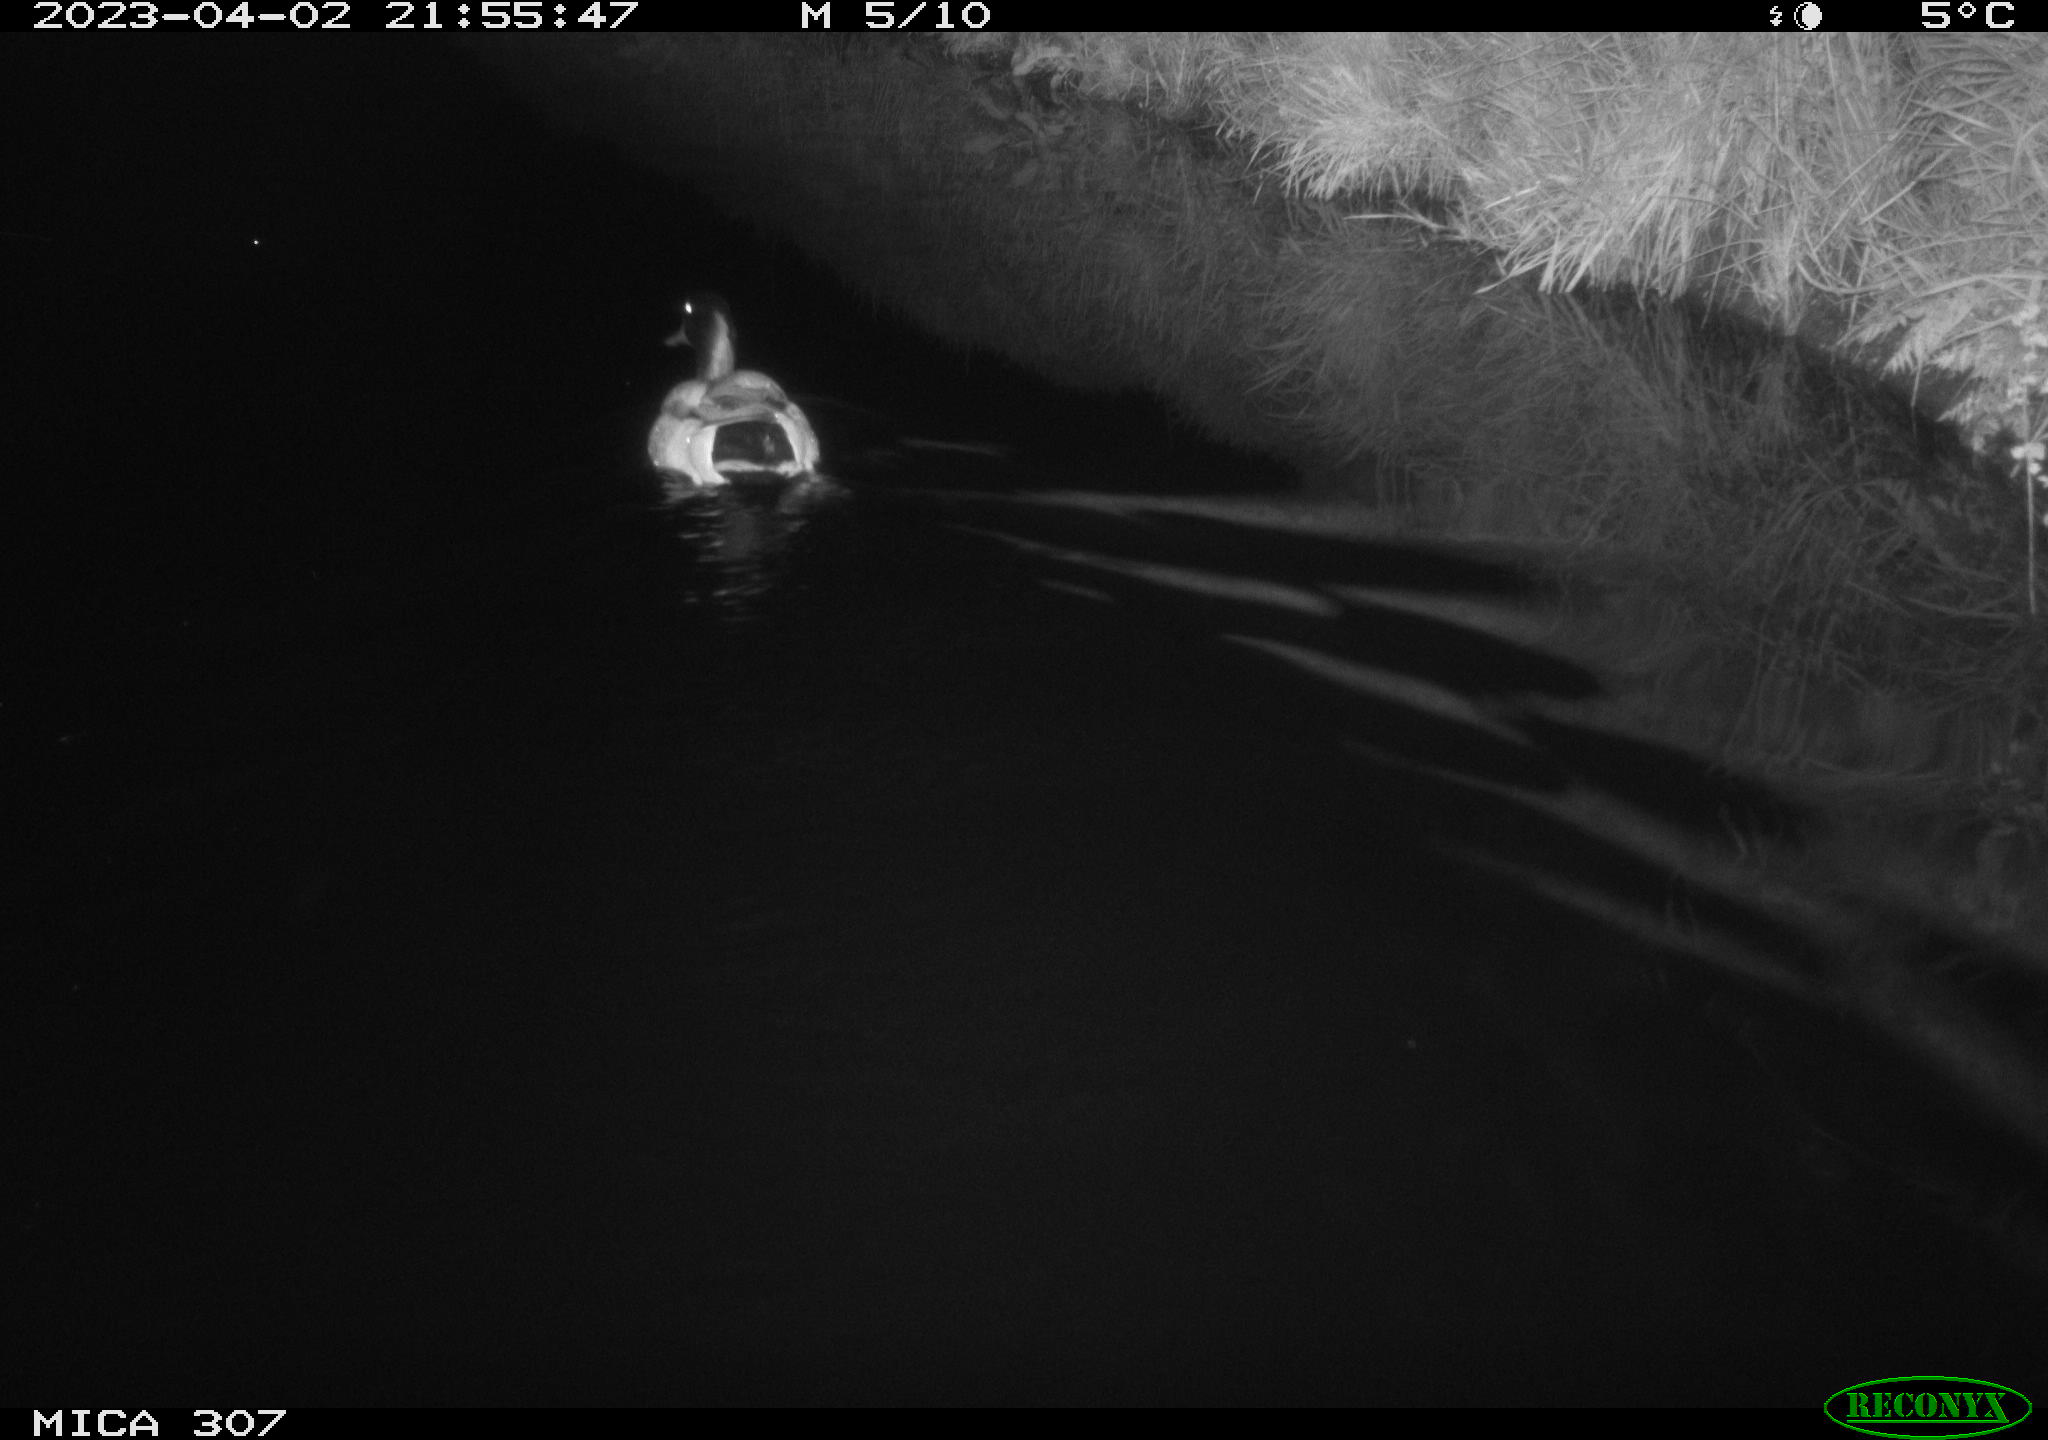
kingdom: Animalia
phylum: Chordata
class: Aves
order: Anseriformes
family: Anatidae
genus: Anas
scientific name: Anas
